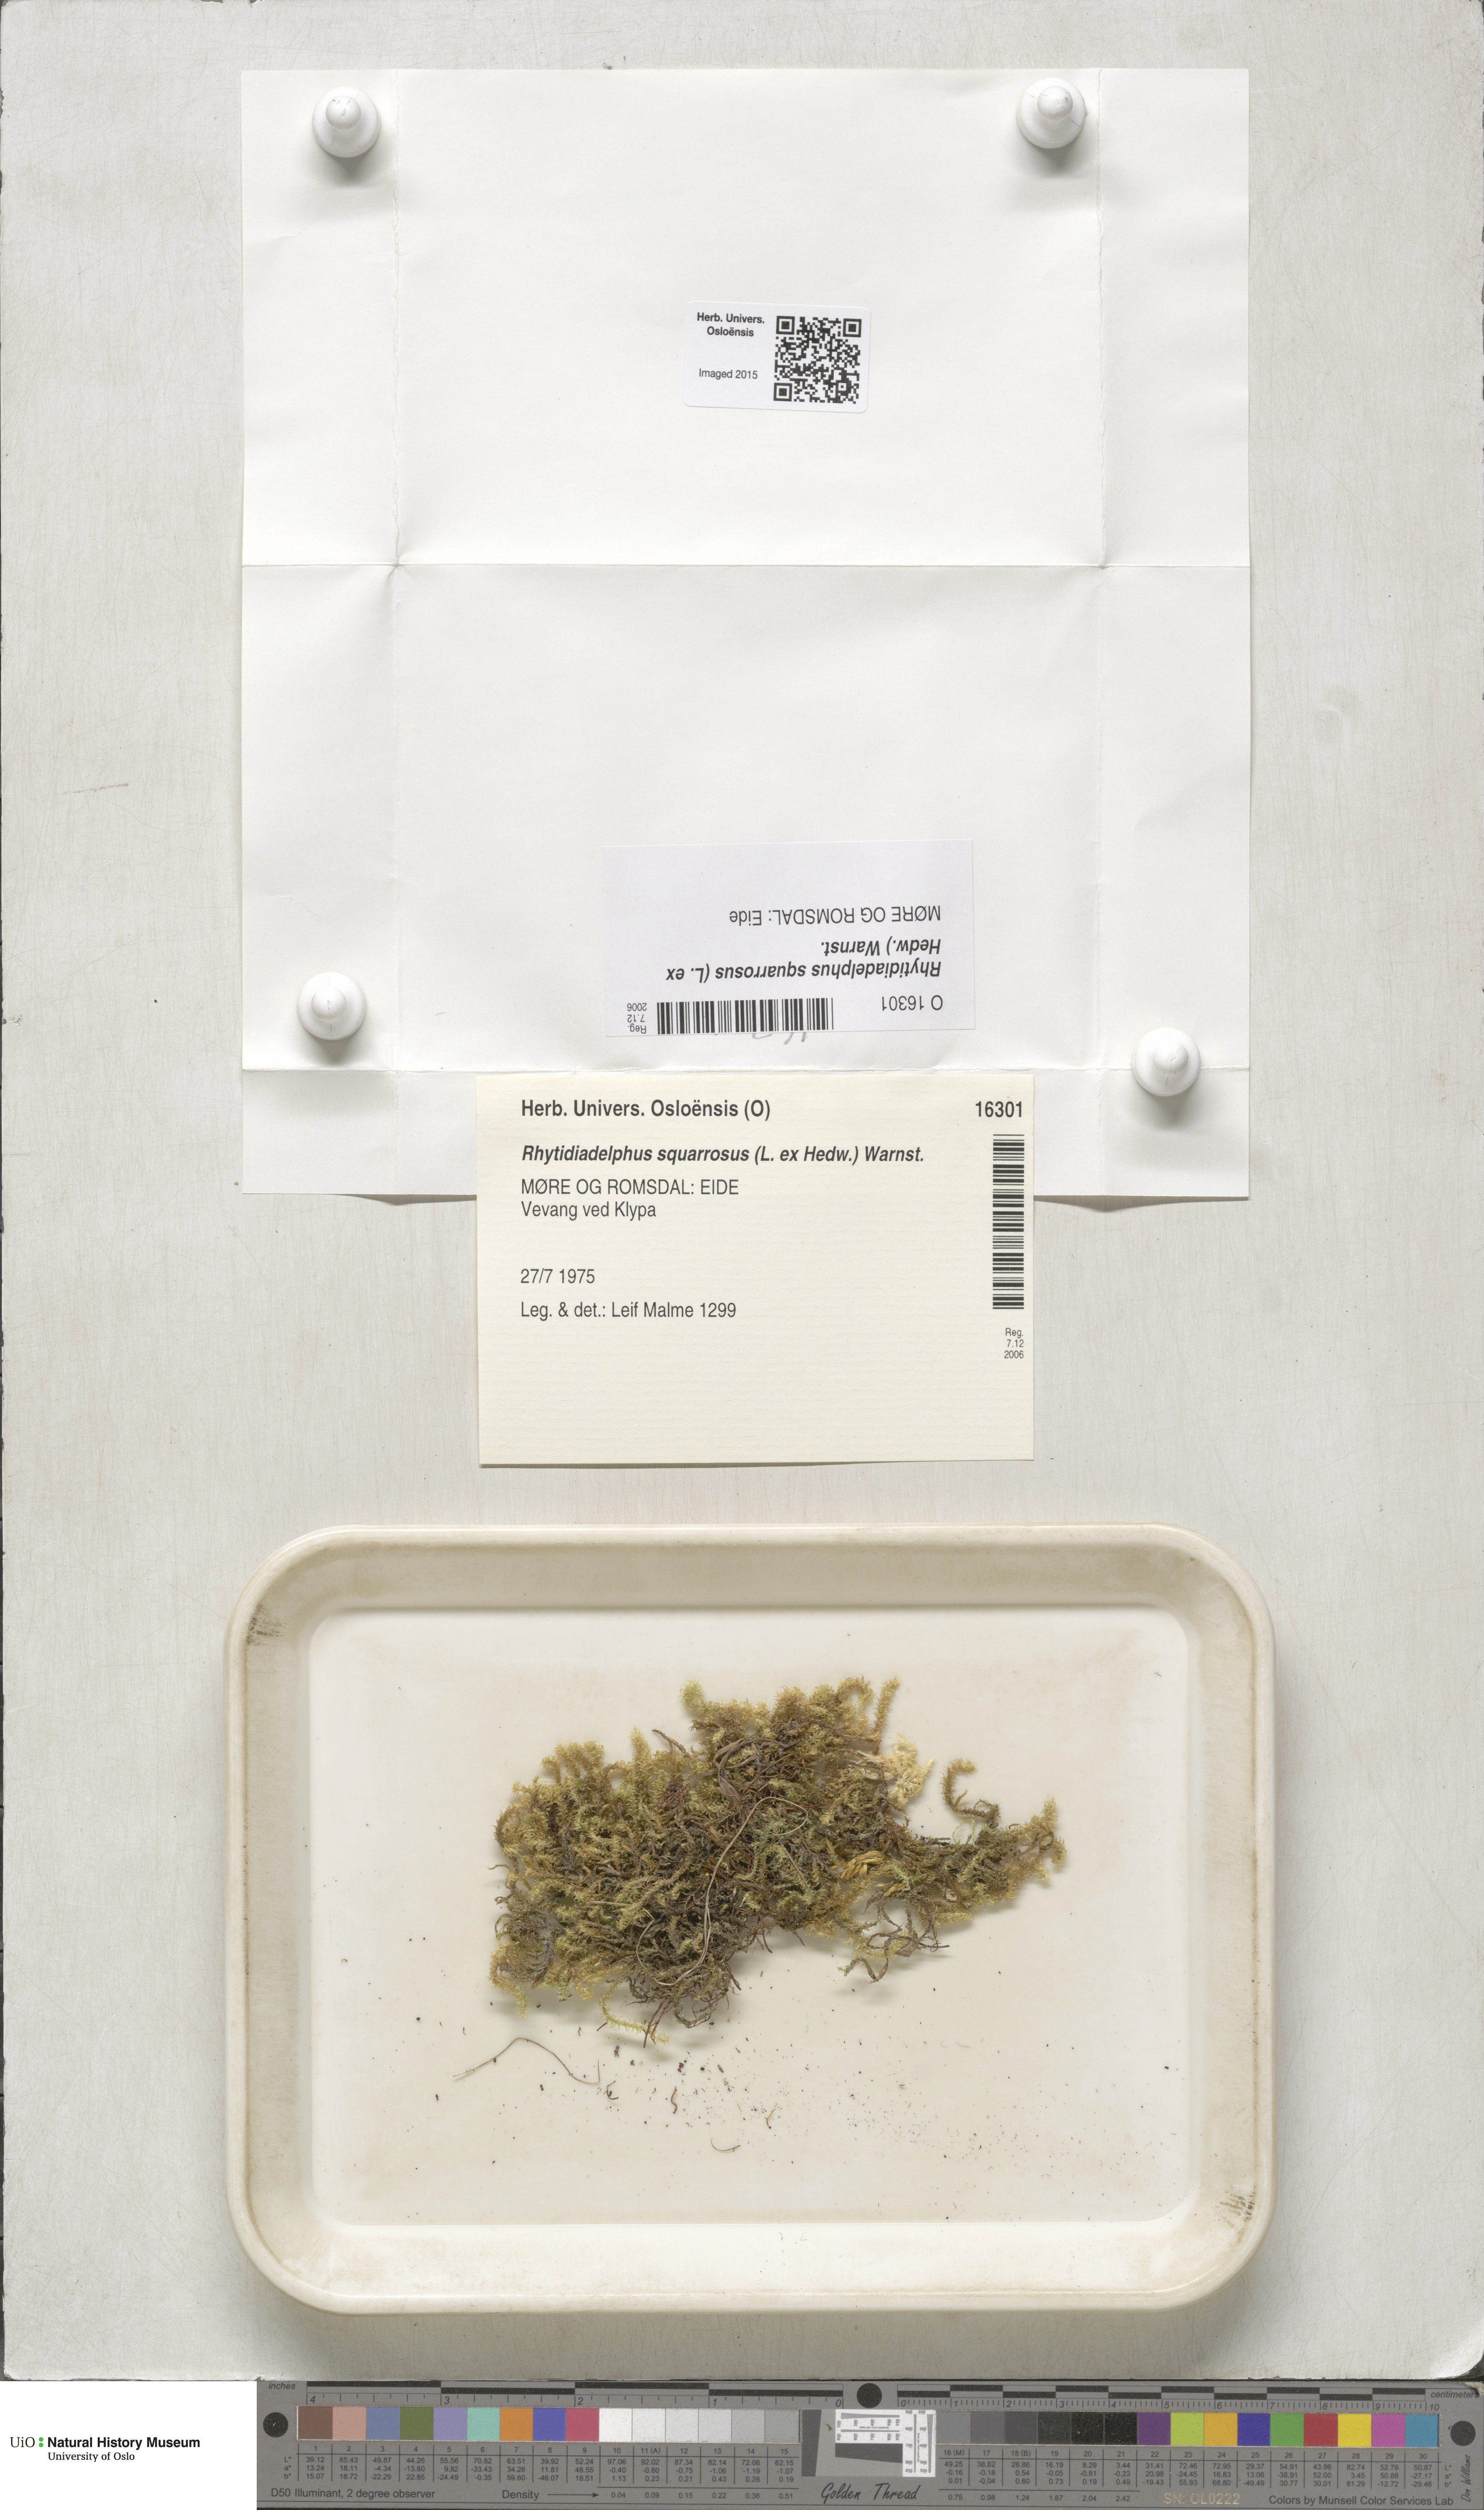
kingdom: Plantae
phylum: Bryophyta
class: Bryopsida
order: Hypnales
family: Hylocomiaceae
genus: Rhytidiadelphus
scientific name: Rhytidiadelphus squarrosus
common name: Springy turf-moss
